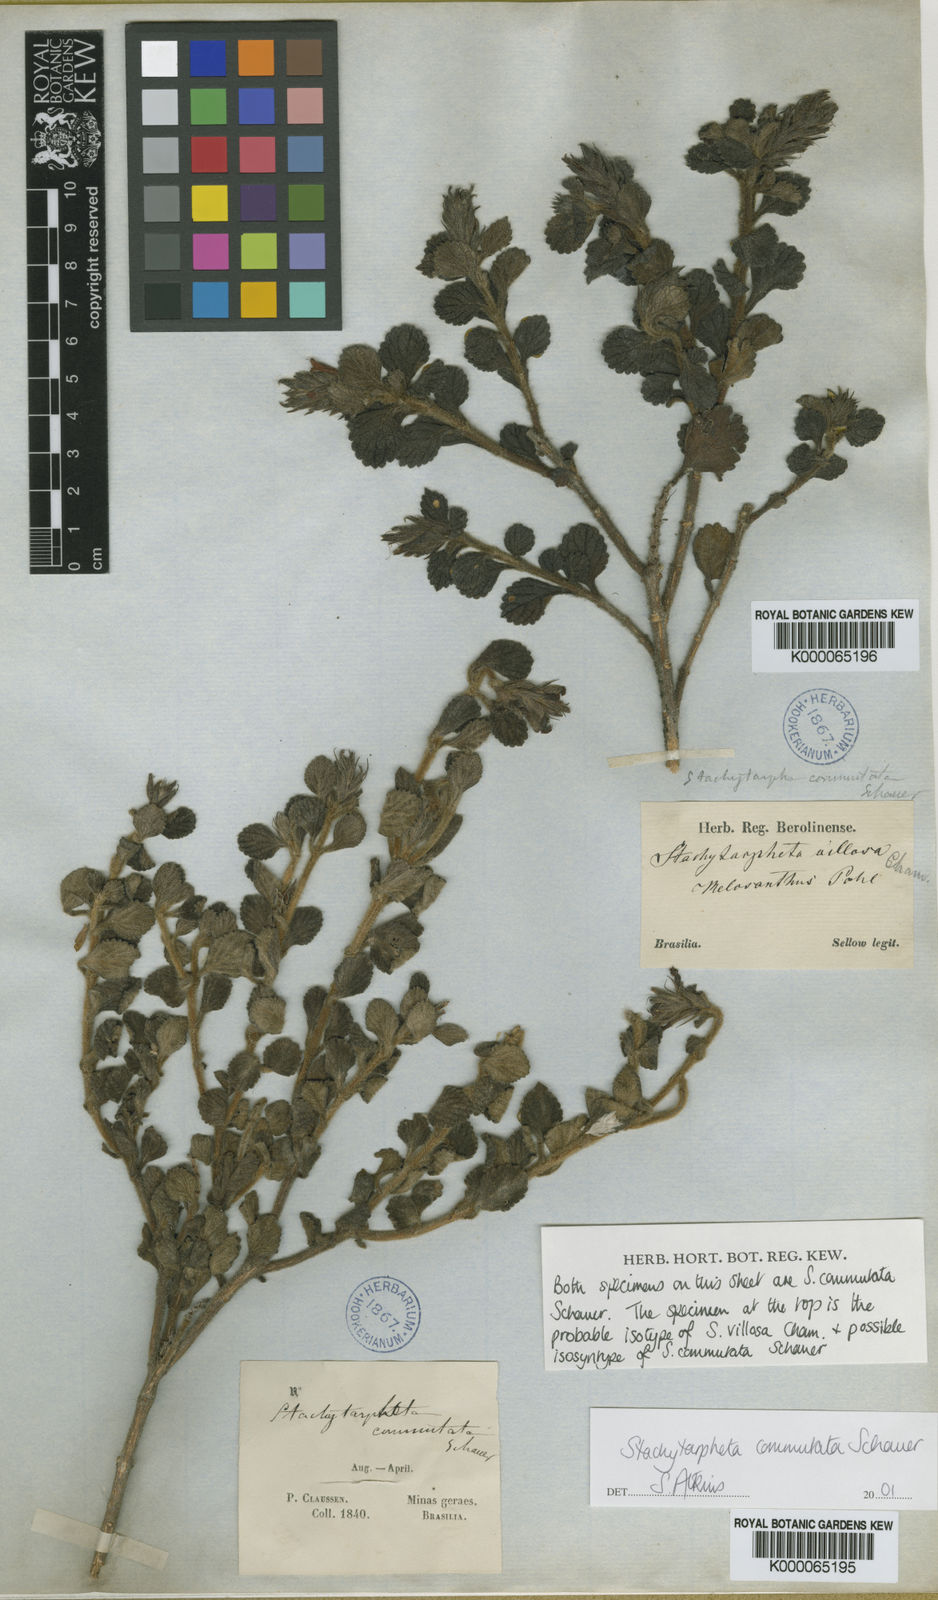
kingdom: Plantae
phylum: Tracheophyta
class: Magnoliopsida
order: Lamiales
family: Verbenaceae
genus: Stachytarpheta
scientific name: Stachytarpheta commutata
